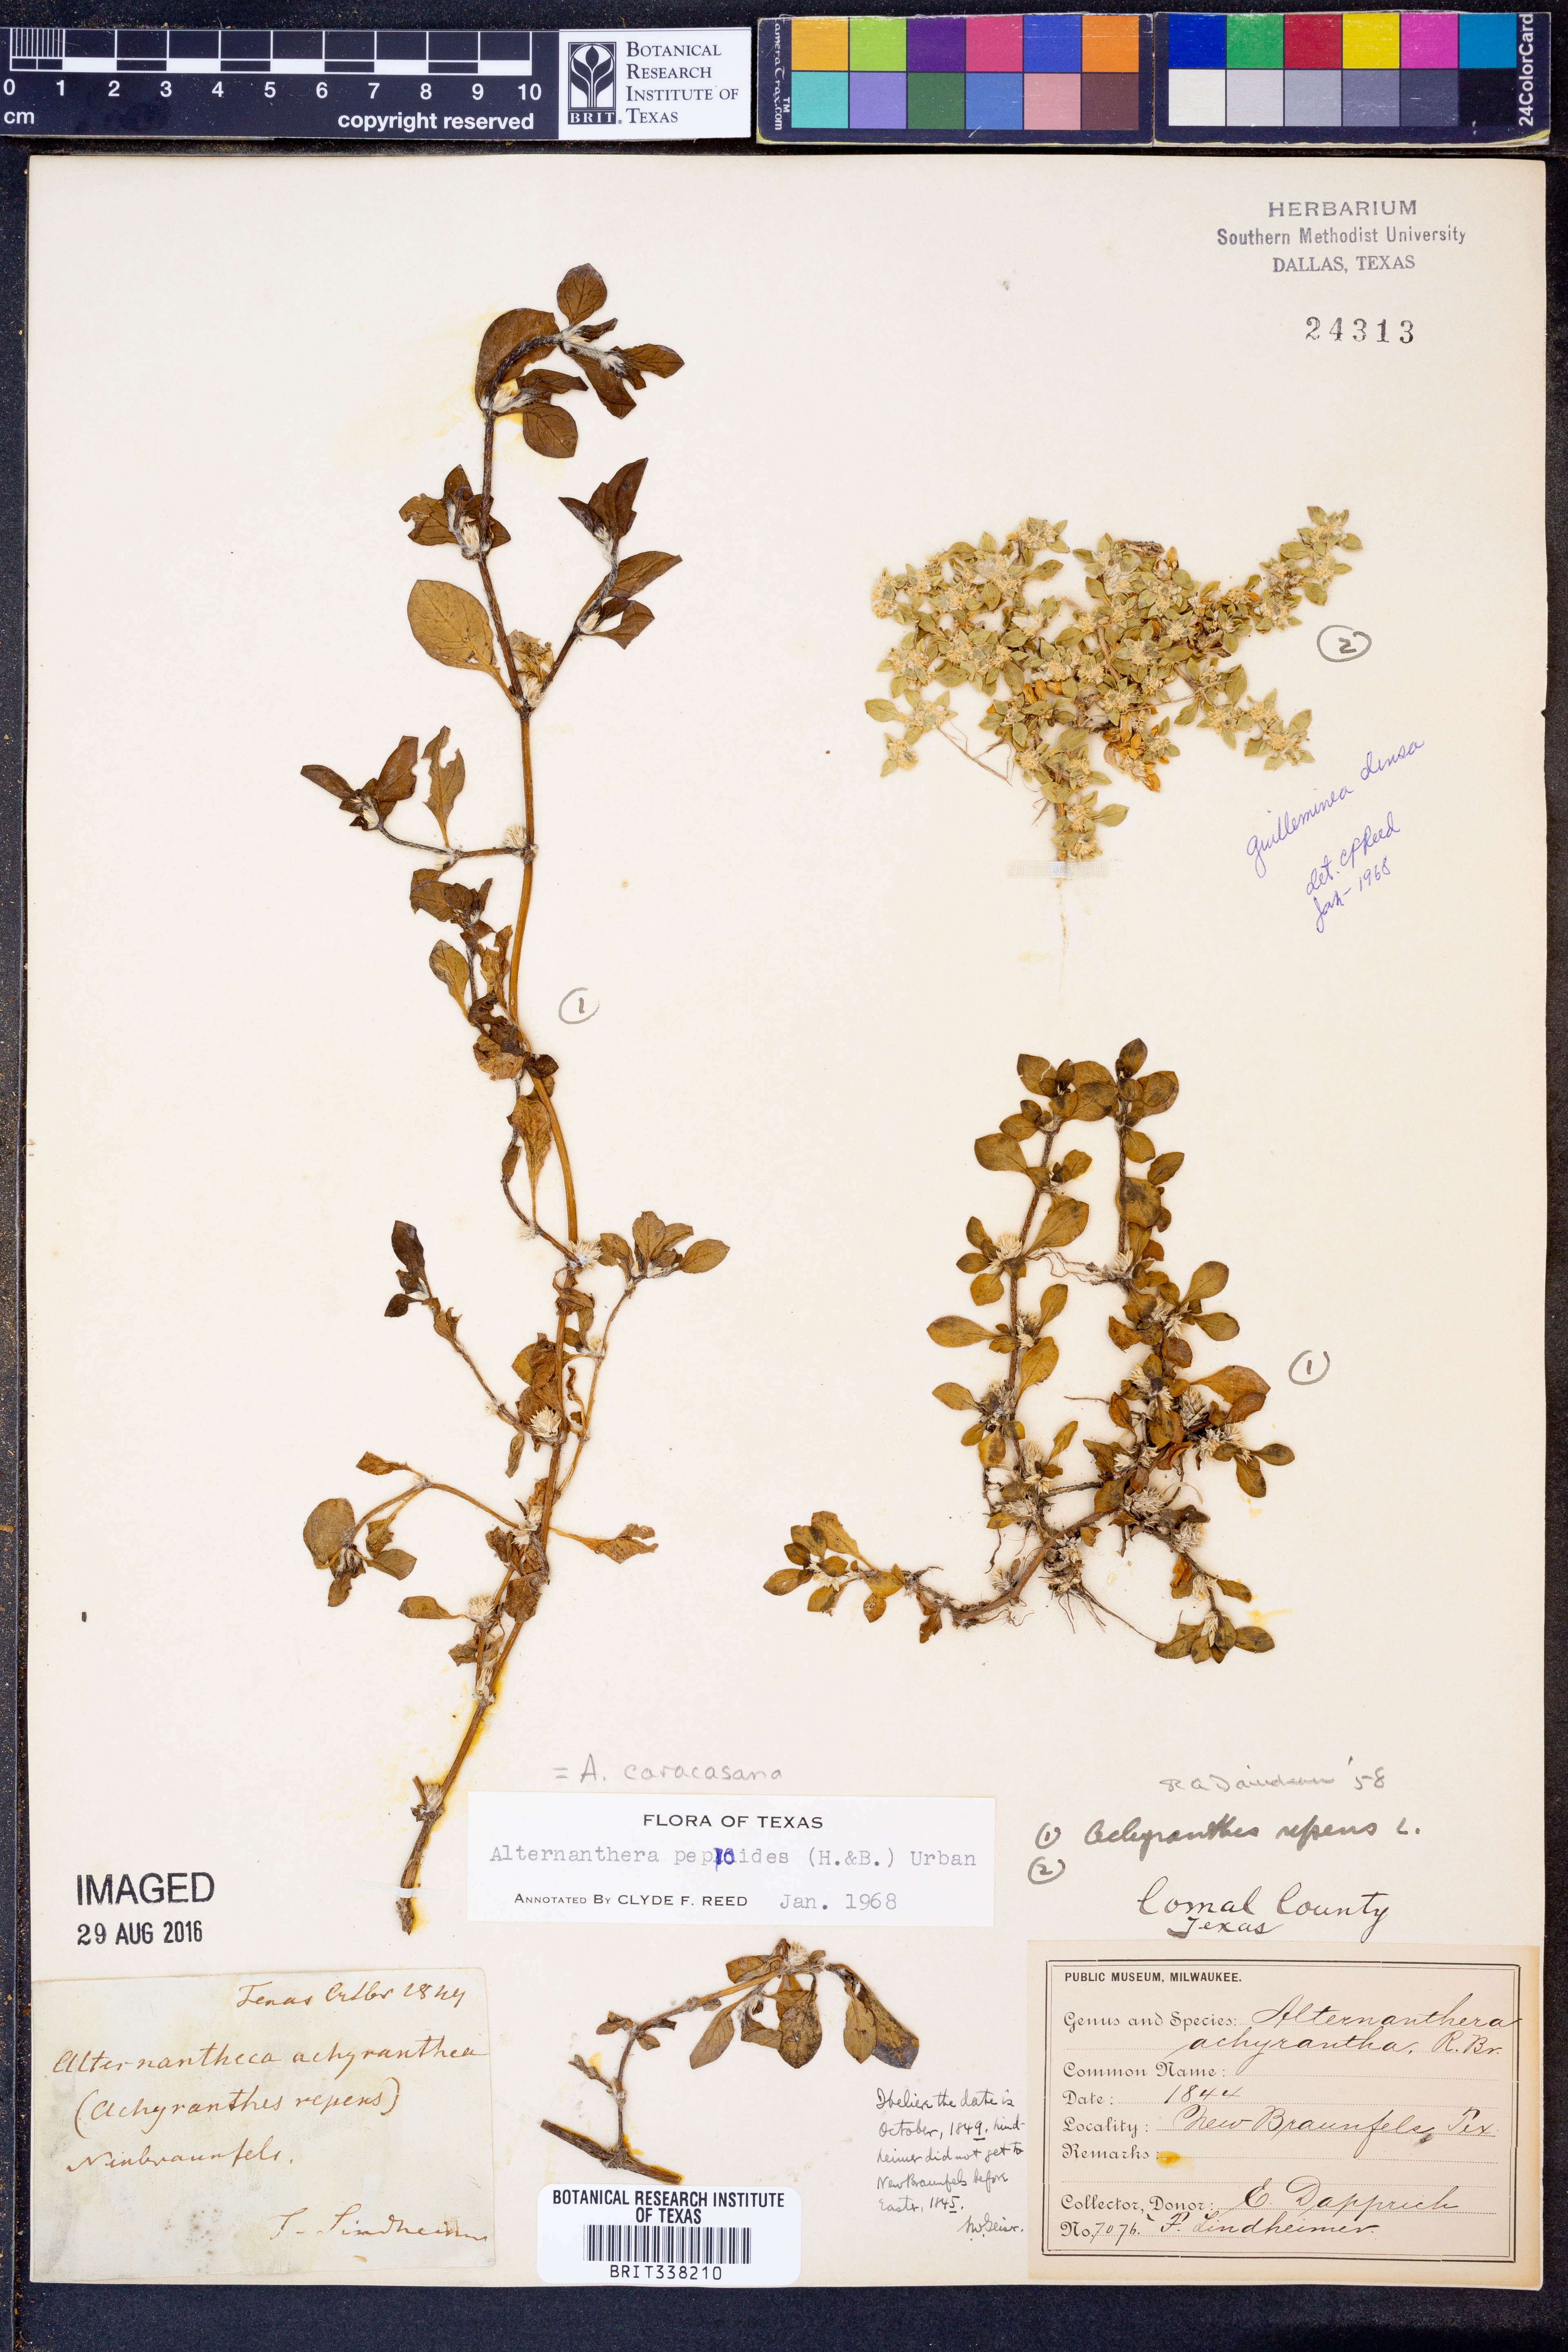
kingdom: Plantae
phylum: Tracheophyta
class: Magnoliopsida
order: Caryophyllales
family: Amaranthaceae
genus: Alternanthera
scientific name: Alternanthera caracasana
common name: Washerwoman
